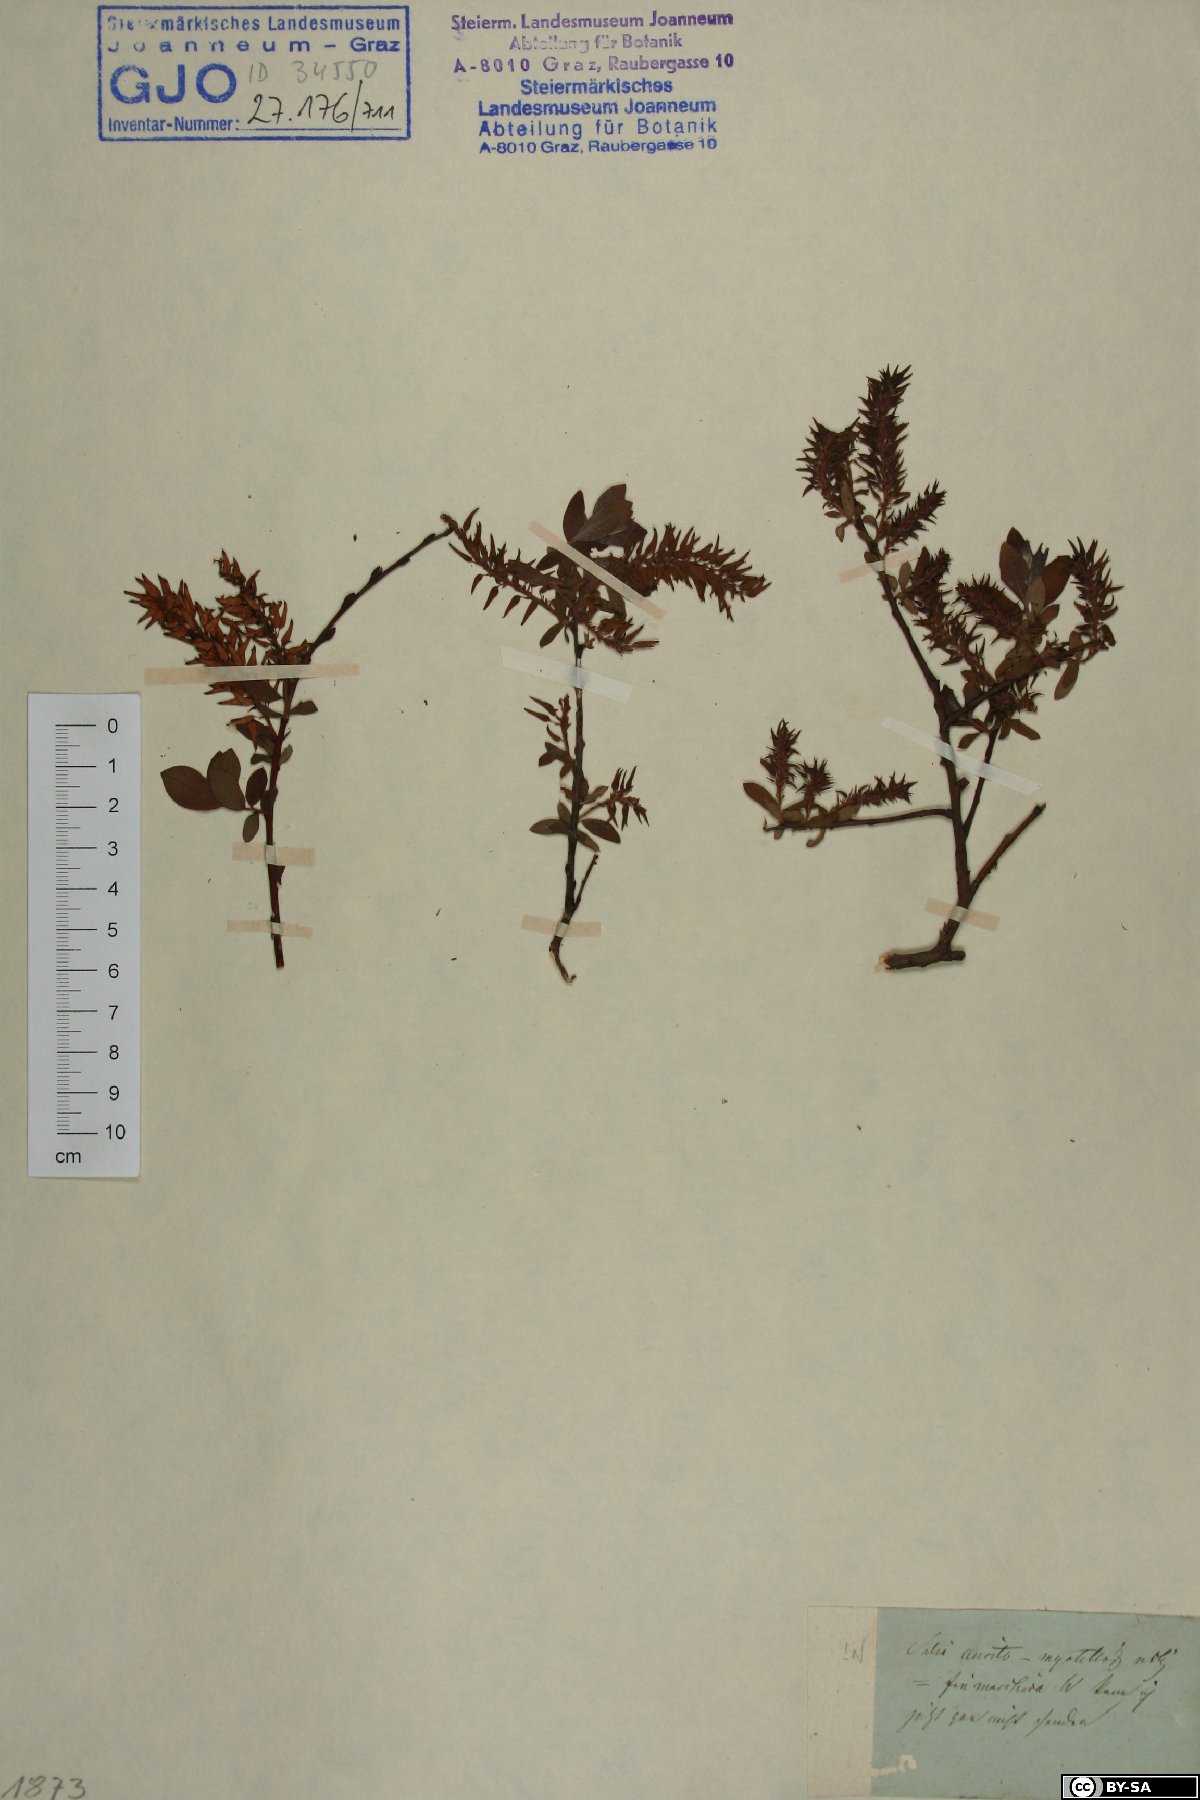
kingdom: Plantae
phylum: Tracheophyta
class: Magnoliopsida
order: Malpighiales
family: Salicaceae
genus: Salix
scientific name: Salix aurita
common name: Eared willow
